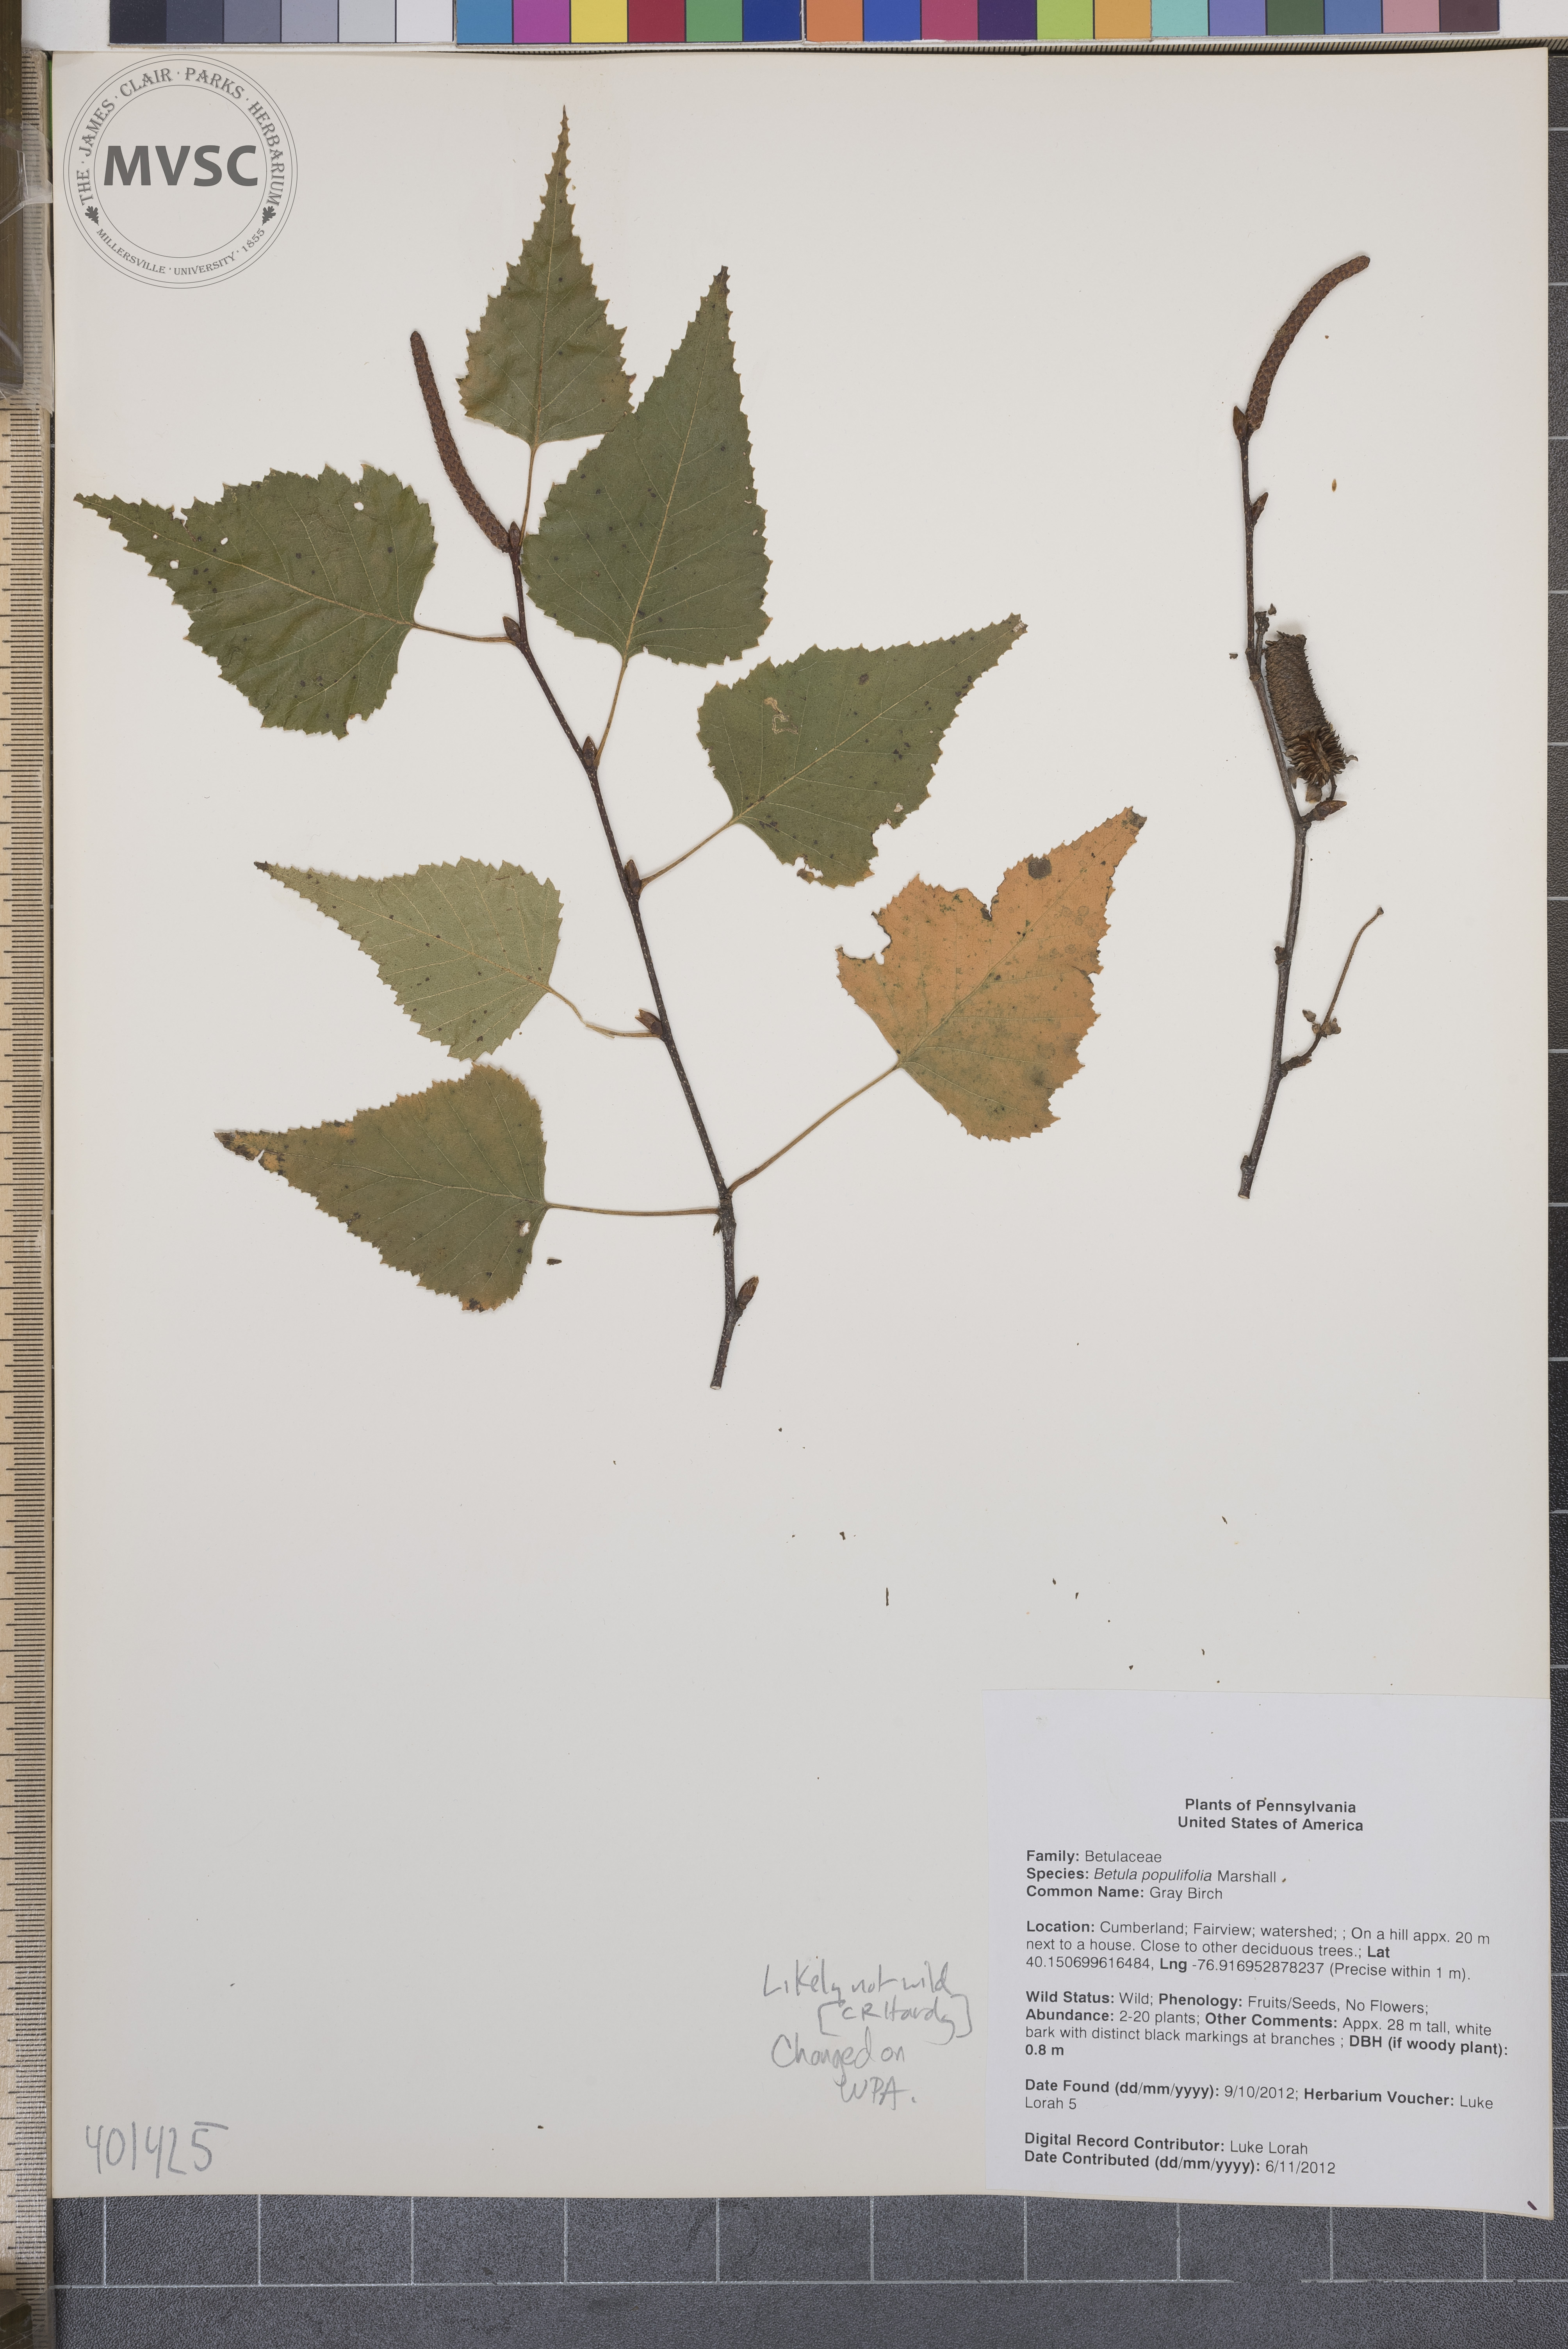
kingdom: Plantae
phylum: Tracheophyta
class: Magnoliopsida
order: Fagales
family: Betulaceae
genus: Betula
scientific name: Betula populifolia
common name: Gray Birch
